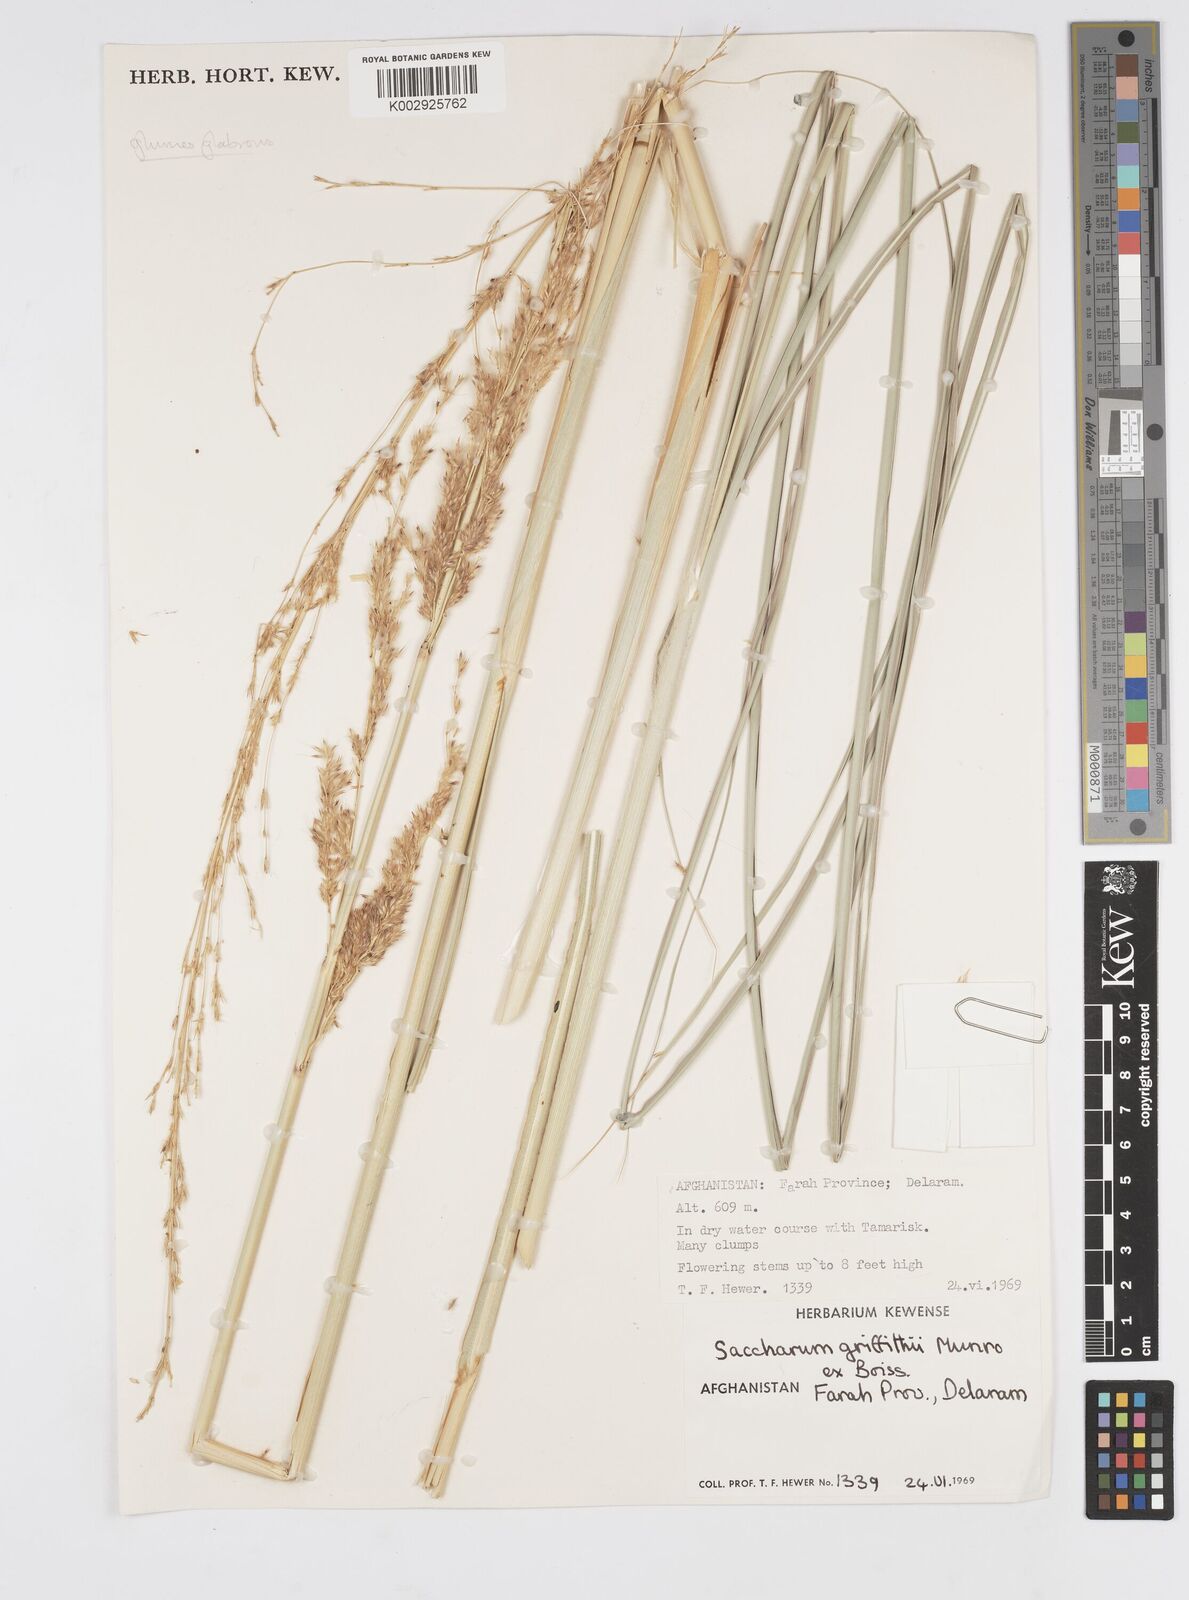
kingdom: Plantae
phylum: Tracheophyta
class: Liliopsida
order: Poales
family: Poaceae
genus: Tripidium
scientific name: Tripidium ravennae
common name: Ravenna grass
